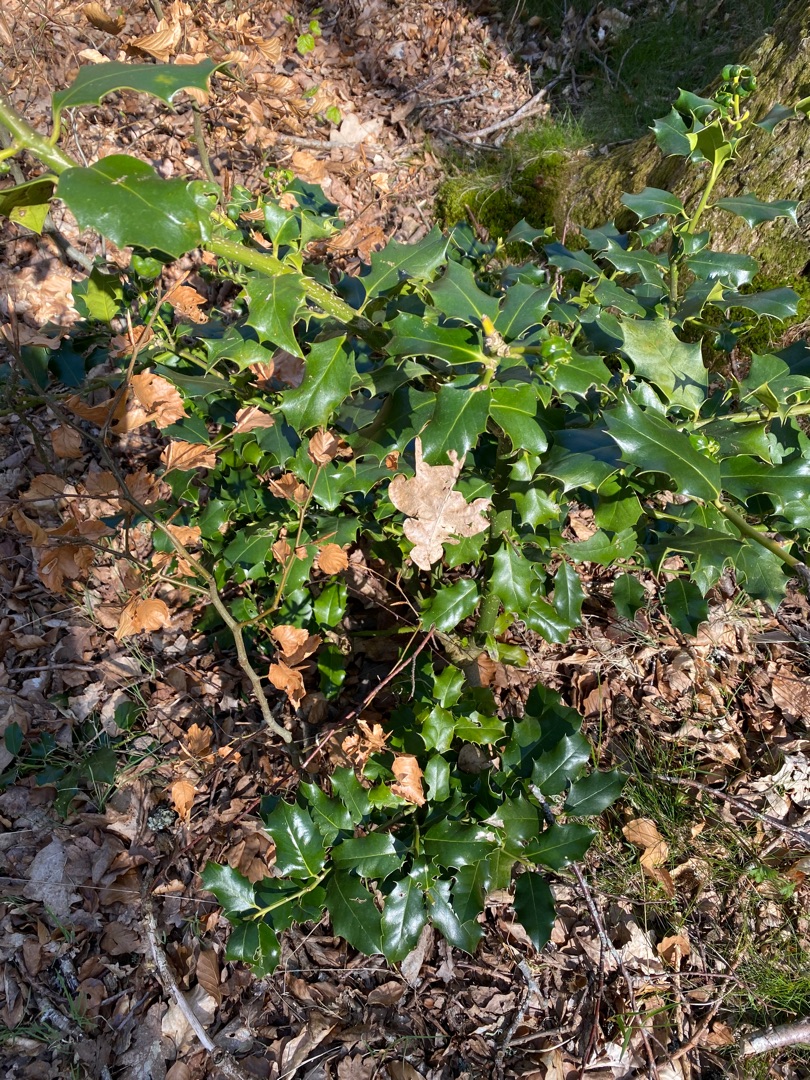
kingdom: Plantae
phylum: Tracheophyta
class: Magnoliopsida
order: Aquifoliales
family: Aquifoliaceae
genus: Ilex
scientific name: Ilex aquifolium
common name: Kristtorn
